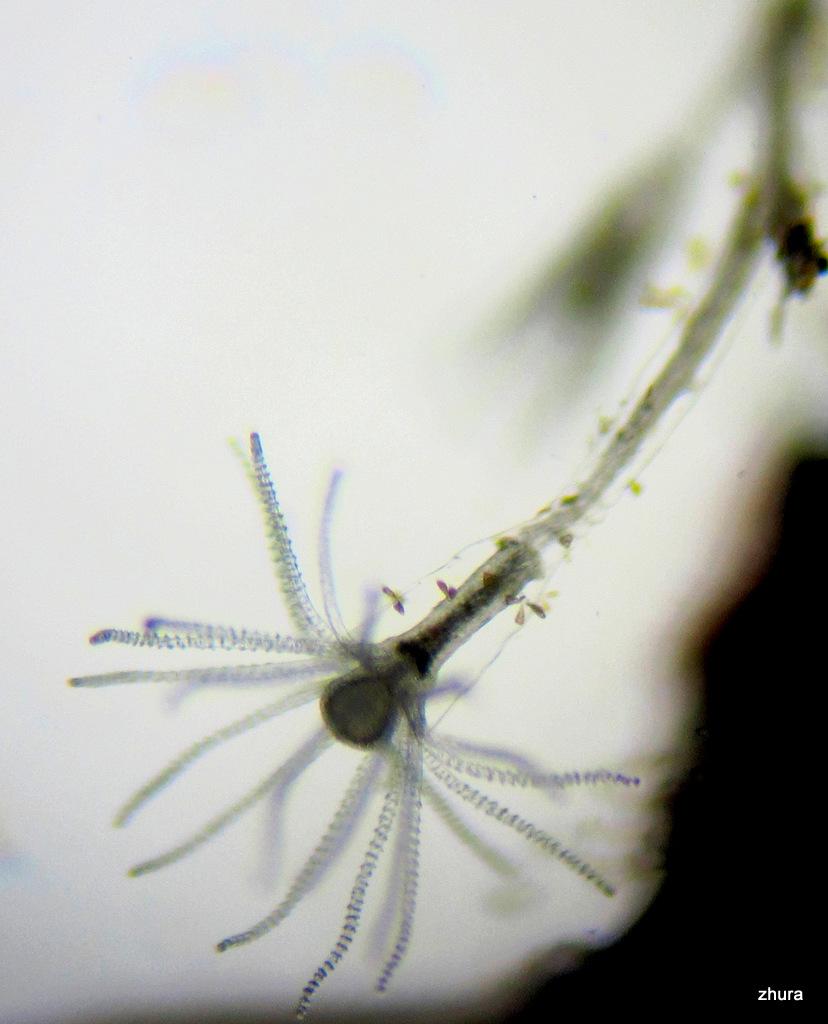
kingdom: Animalia
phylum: Cnidaria
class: Hydrozoa
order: Leptothecata
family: Campanulariidae
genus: Obelia
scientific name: Obelia
